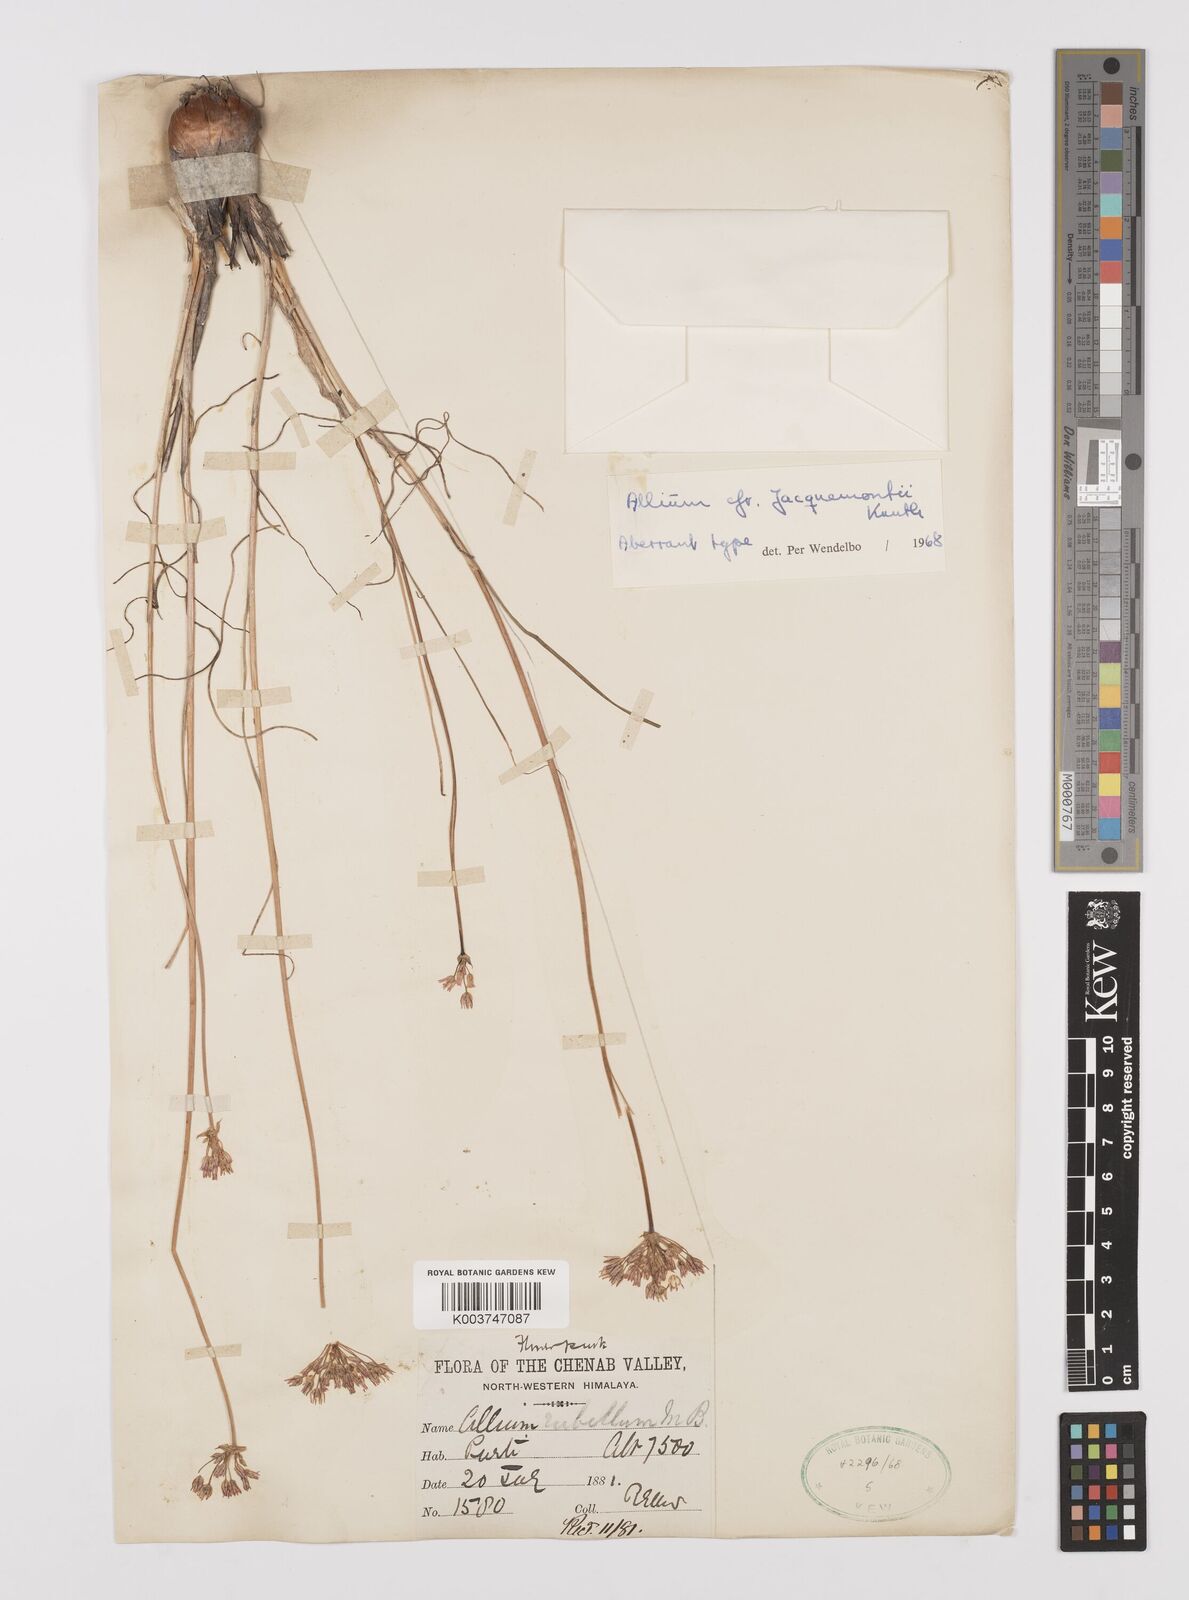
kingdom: Plantae
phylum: Tracheophyta
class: Liliopsida
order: Asparagales
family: Amaryllidaceae
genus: Allium
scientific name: Allium rubellum
